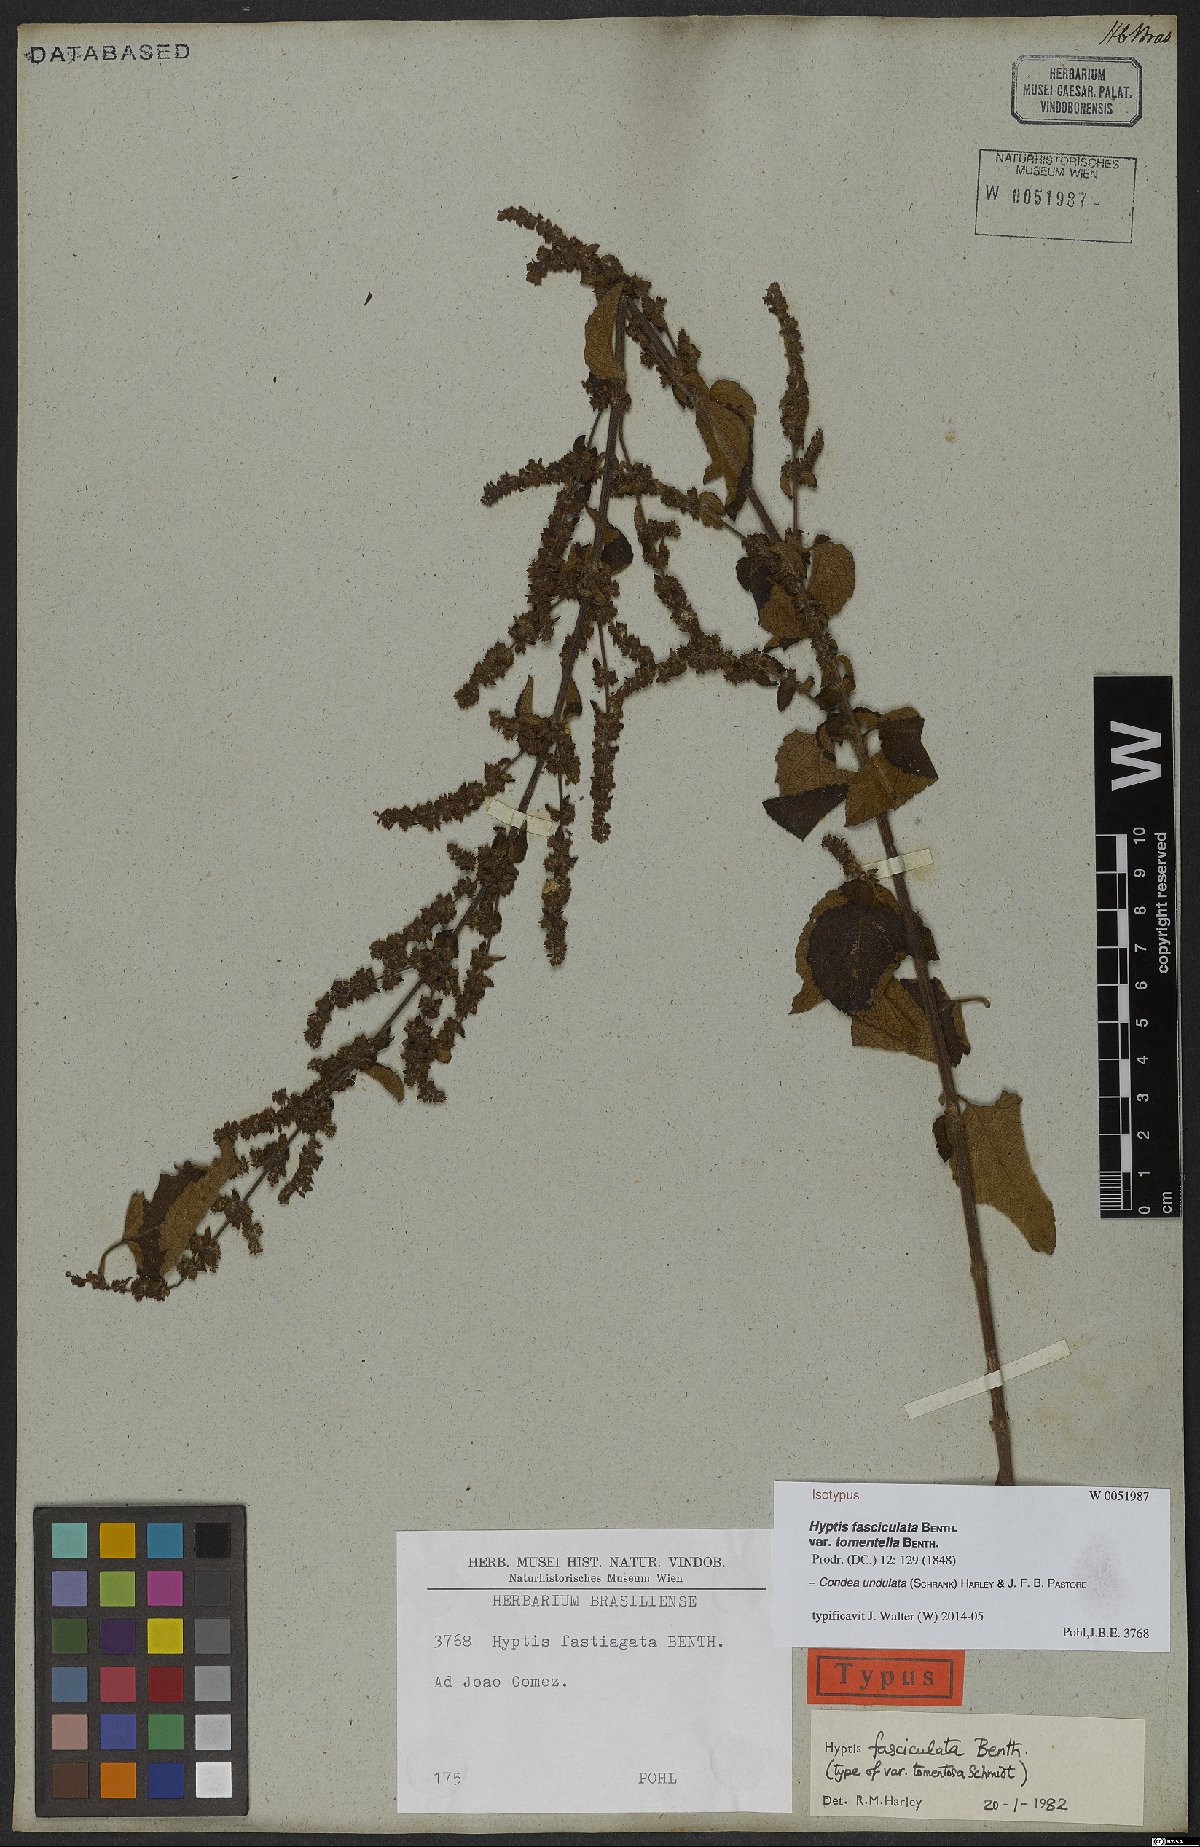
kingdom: Plantae
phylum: Tracheophyta
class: Magnoliopsida
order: Lamiales
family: Lamiaceae
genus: Condea
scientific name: Condea undulata
